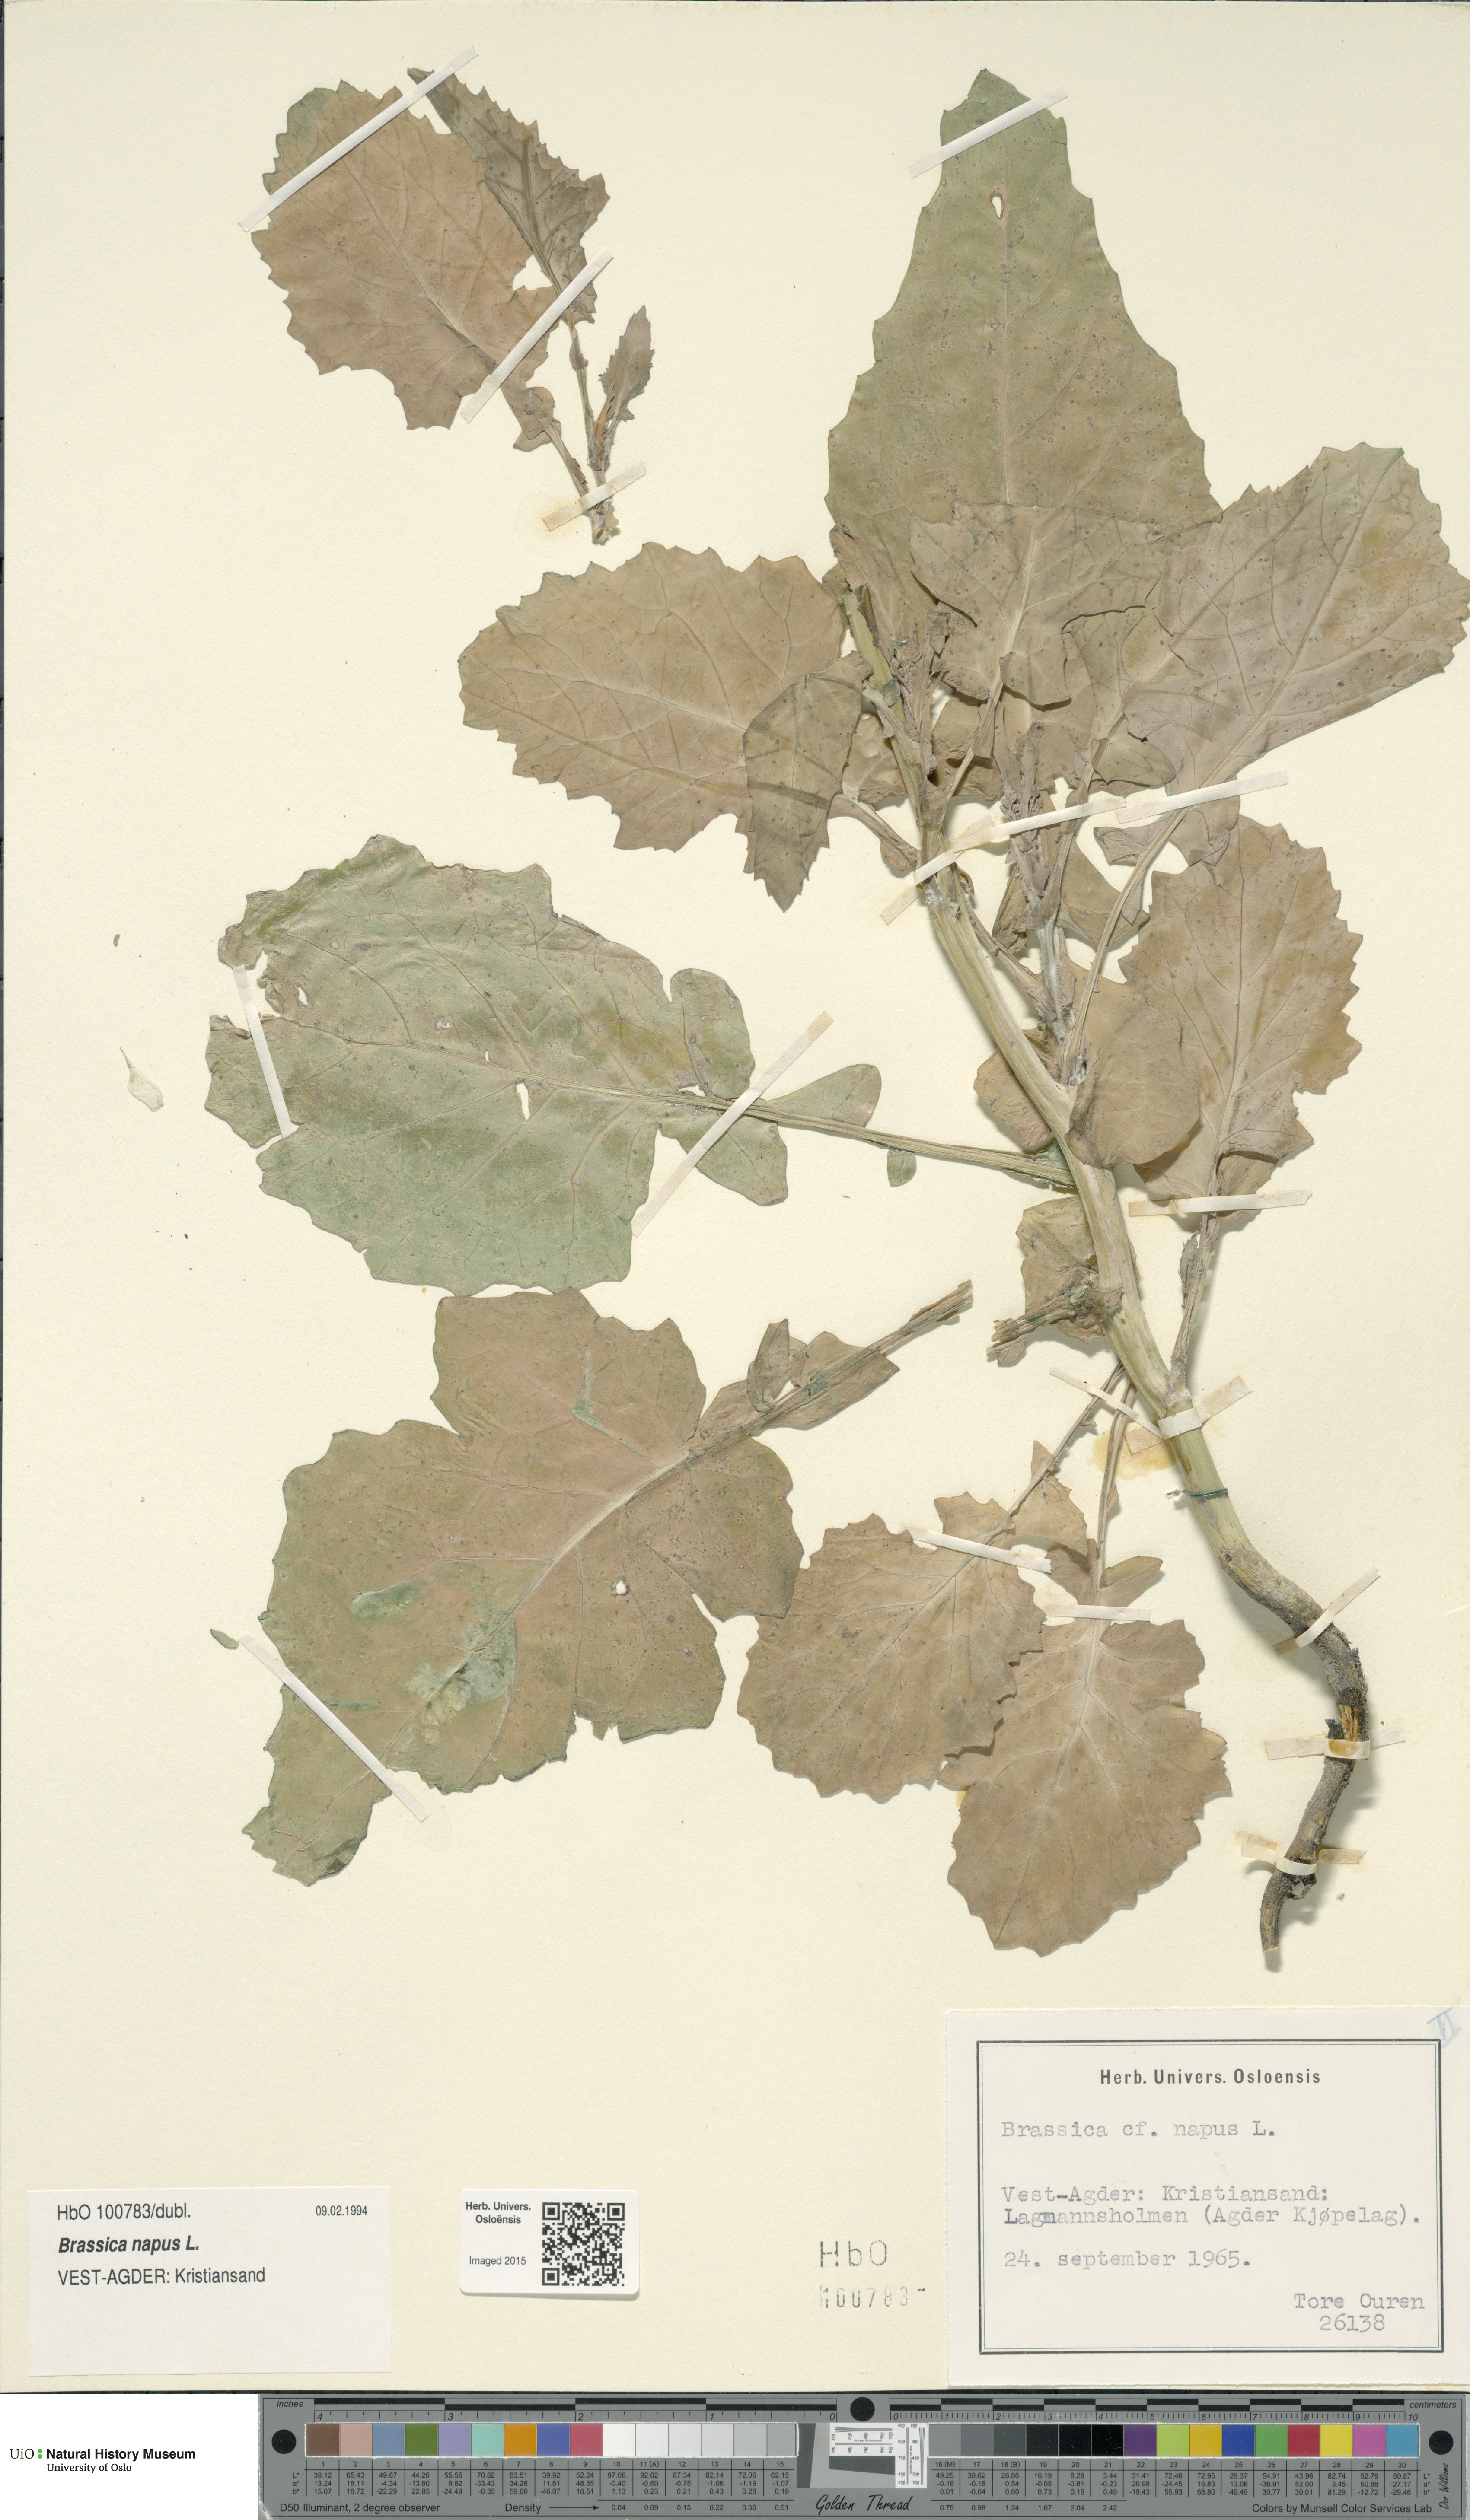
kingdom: Plantae
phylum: Tracheophyta
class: Magnoliopsida
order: Brassicales
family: Brassicaceae
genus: Brassica
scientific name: Brassica napus
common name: Rape
